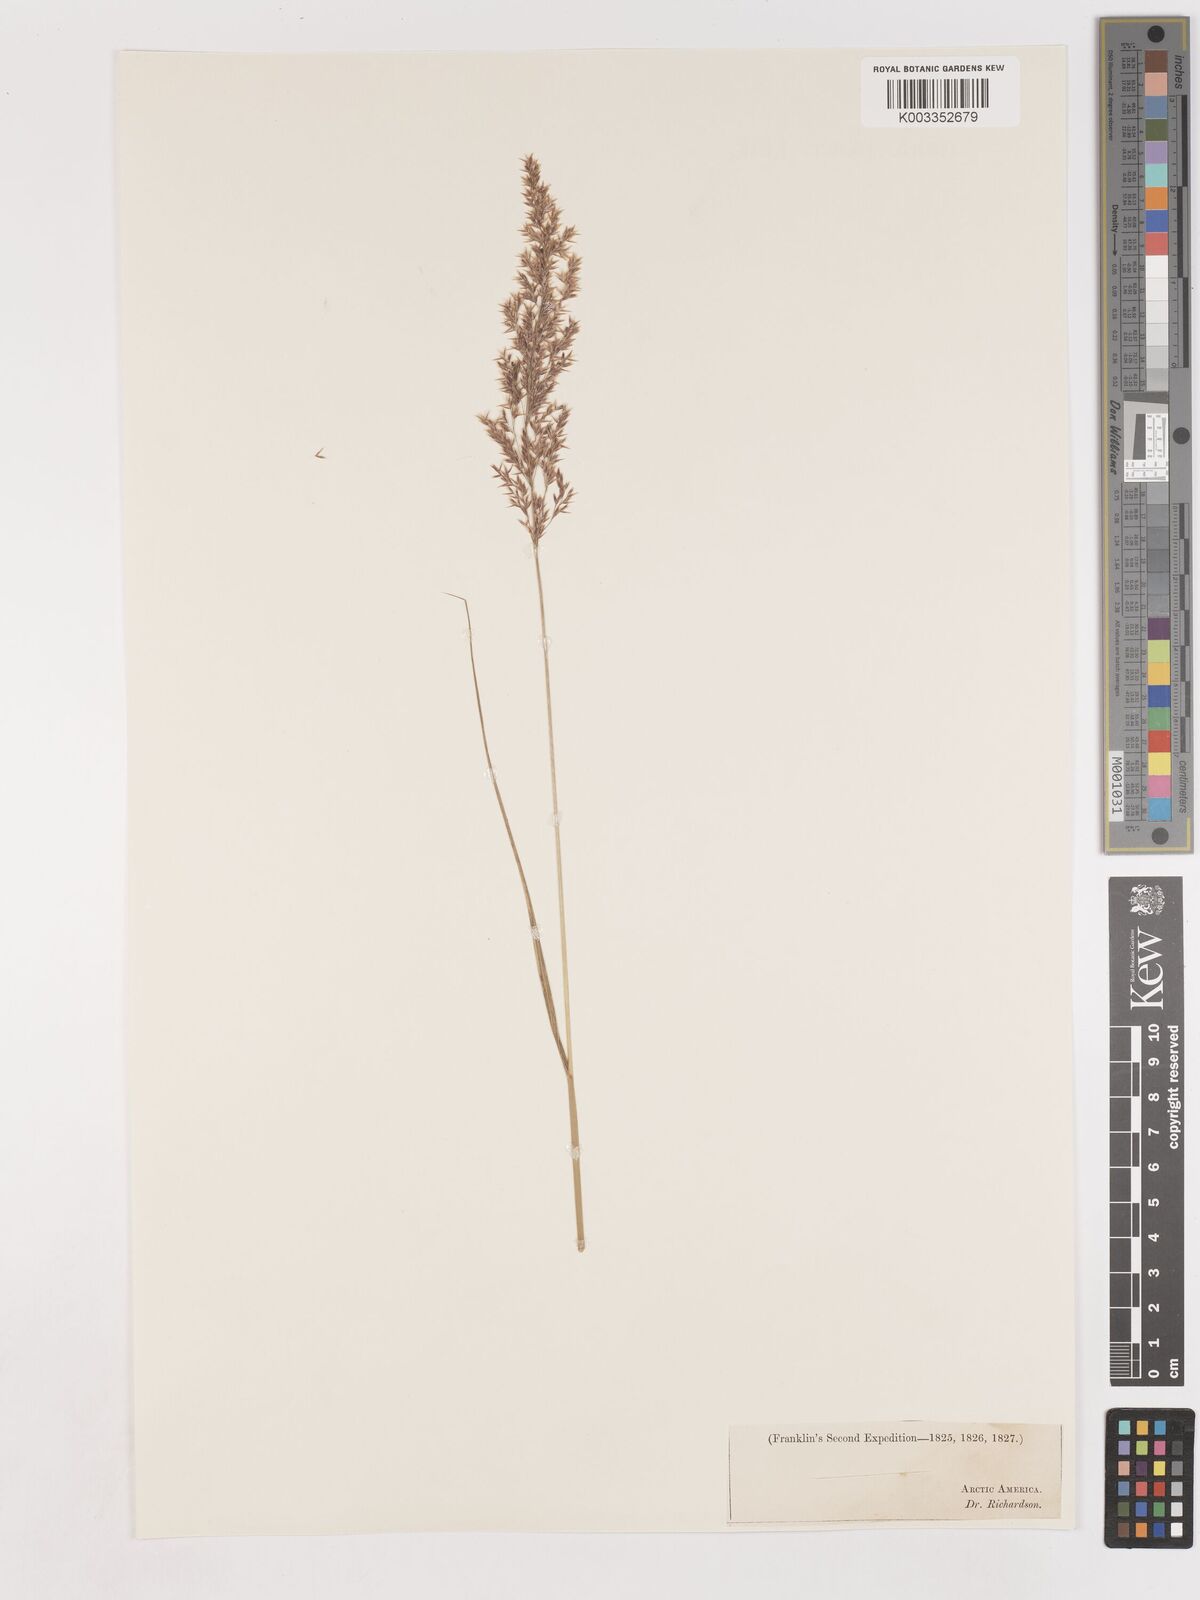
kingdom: Plantae
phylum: Tracheophyta
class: Liliopsida
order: Poales
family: Poaceae
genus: Calamagrostis
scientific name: Calamagrostis canadensis
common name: Canada bluejoint
